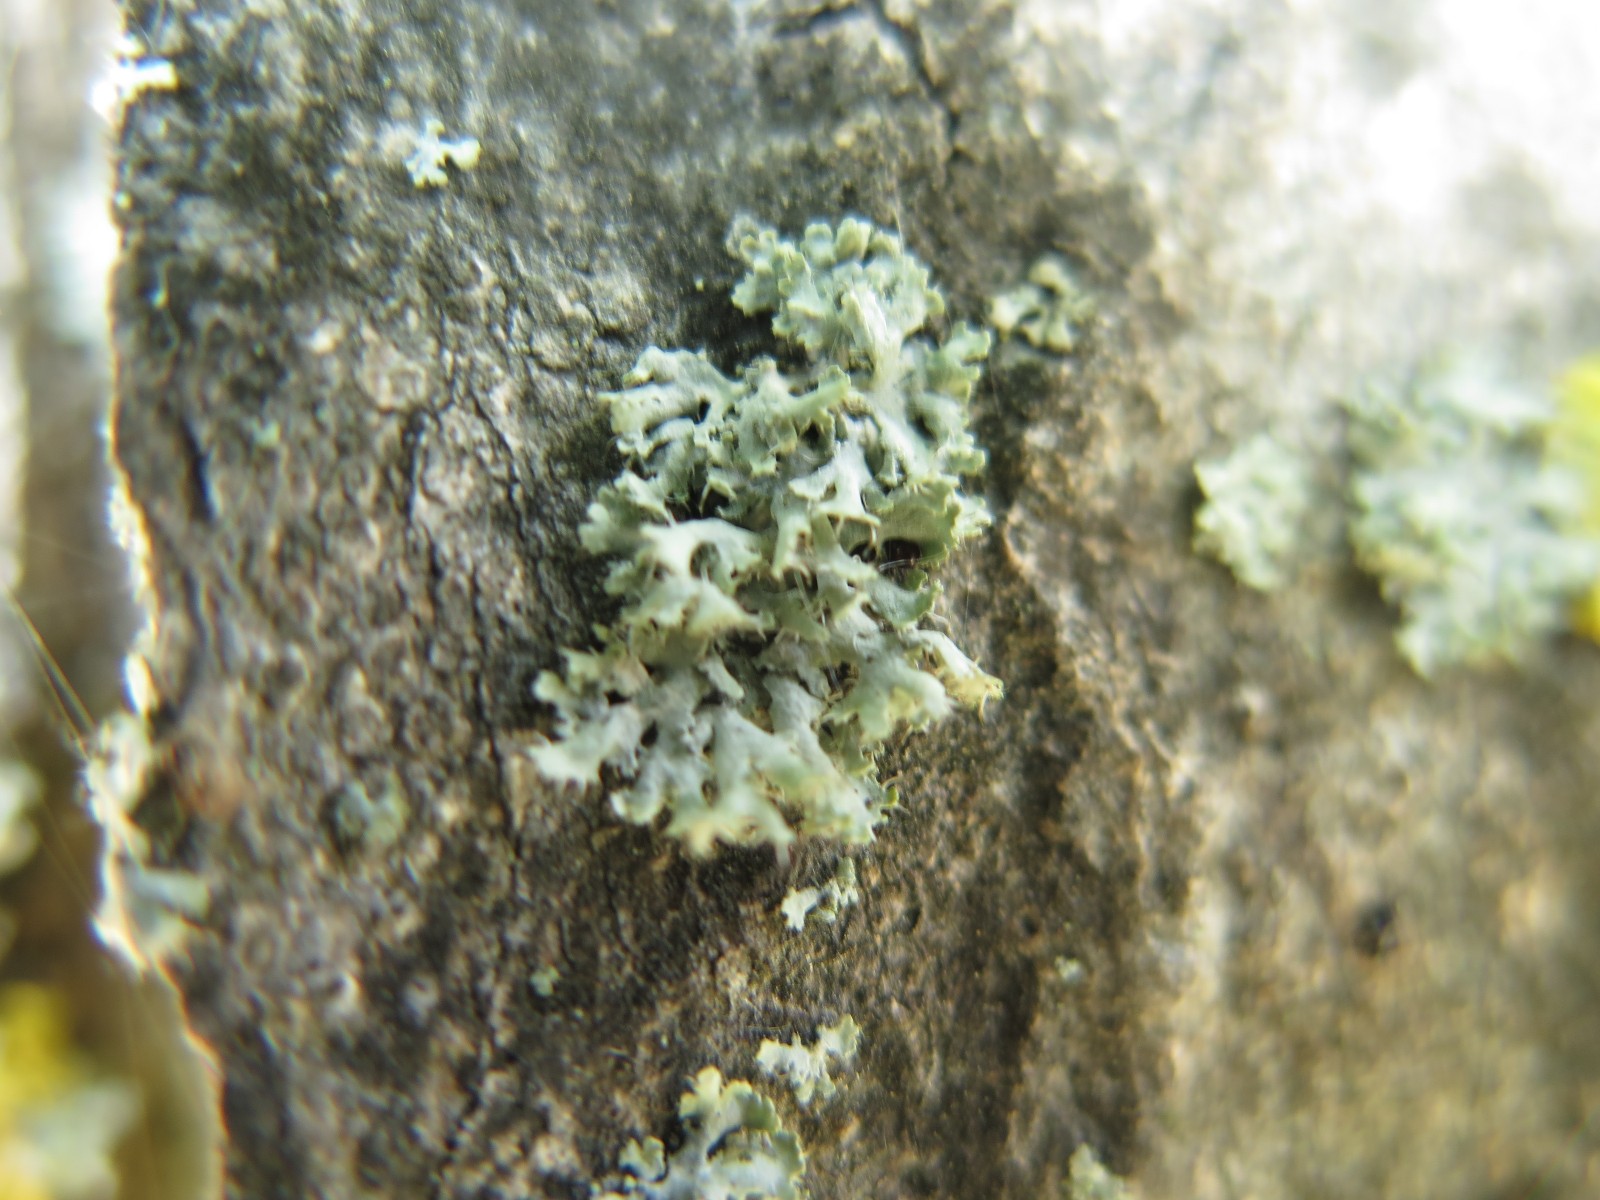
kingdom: Fungi
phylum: Ascomycota
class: Lecanoromycetes
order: Caliciales
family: Physciaceae
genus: Physcia
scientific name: Physcia tenella
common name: spæd rosetlav
